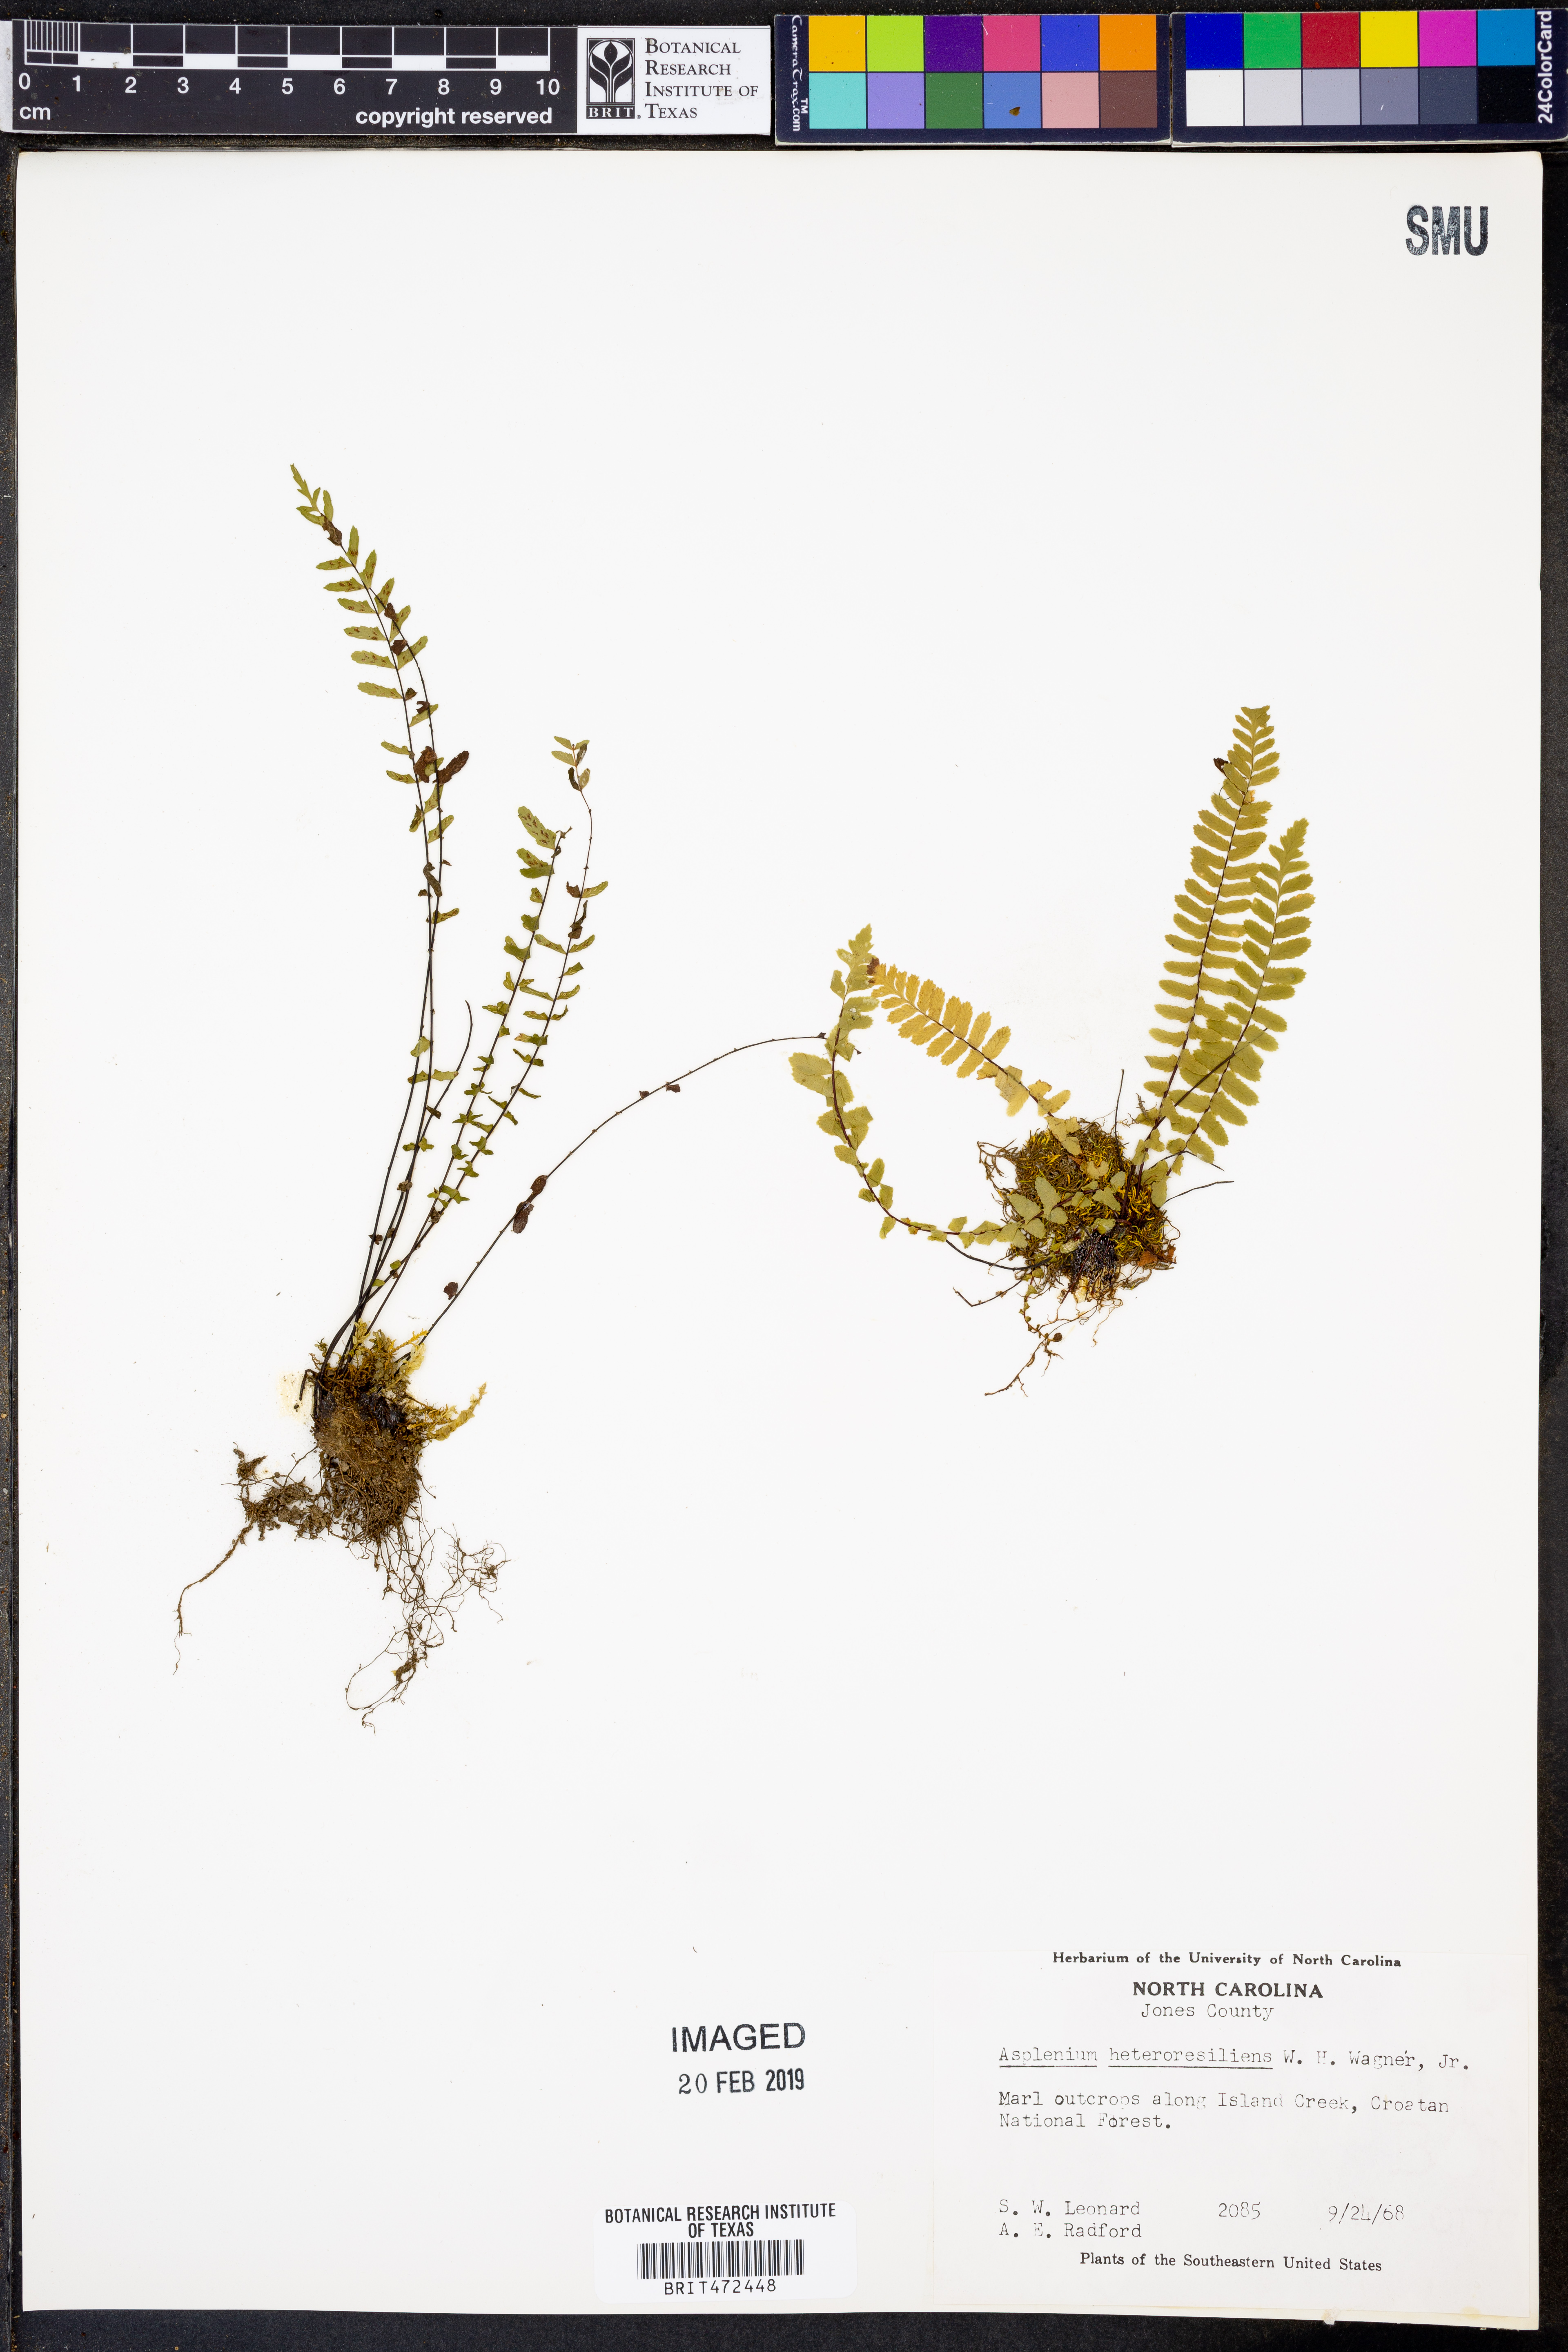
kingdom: Plantae
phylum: Tracheophyta
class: Polypodiopsida
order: Polypodiales
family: Aspleniaceae
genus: Asplenium
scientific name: Asplenium heteroresiliens
